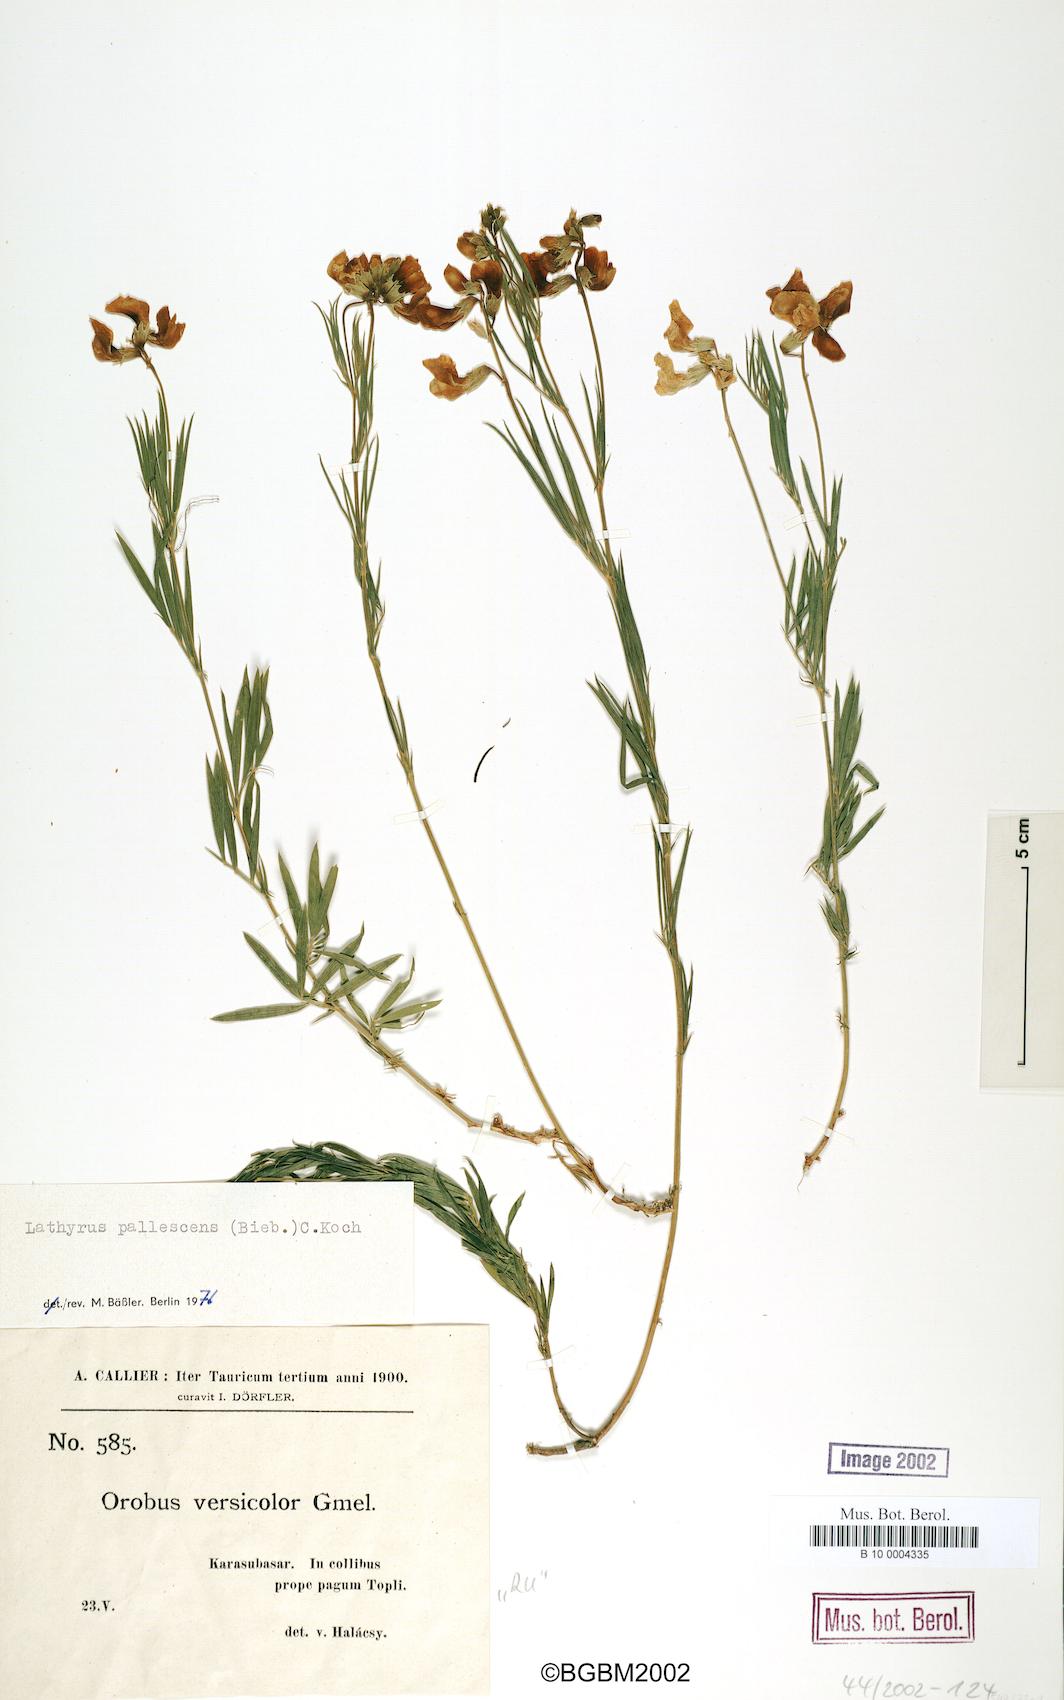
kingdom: Plantae
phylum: Tracheophyta
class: Magnoliopsida
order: Fabales
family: Fabaceae
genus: Lathyrus
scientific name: Lathyrus pallescens
